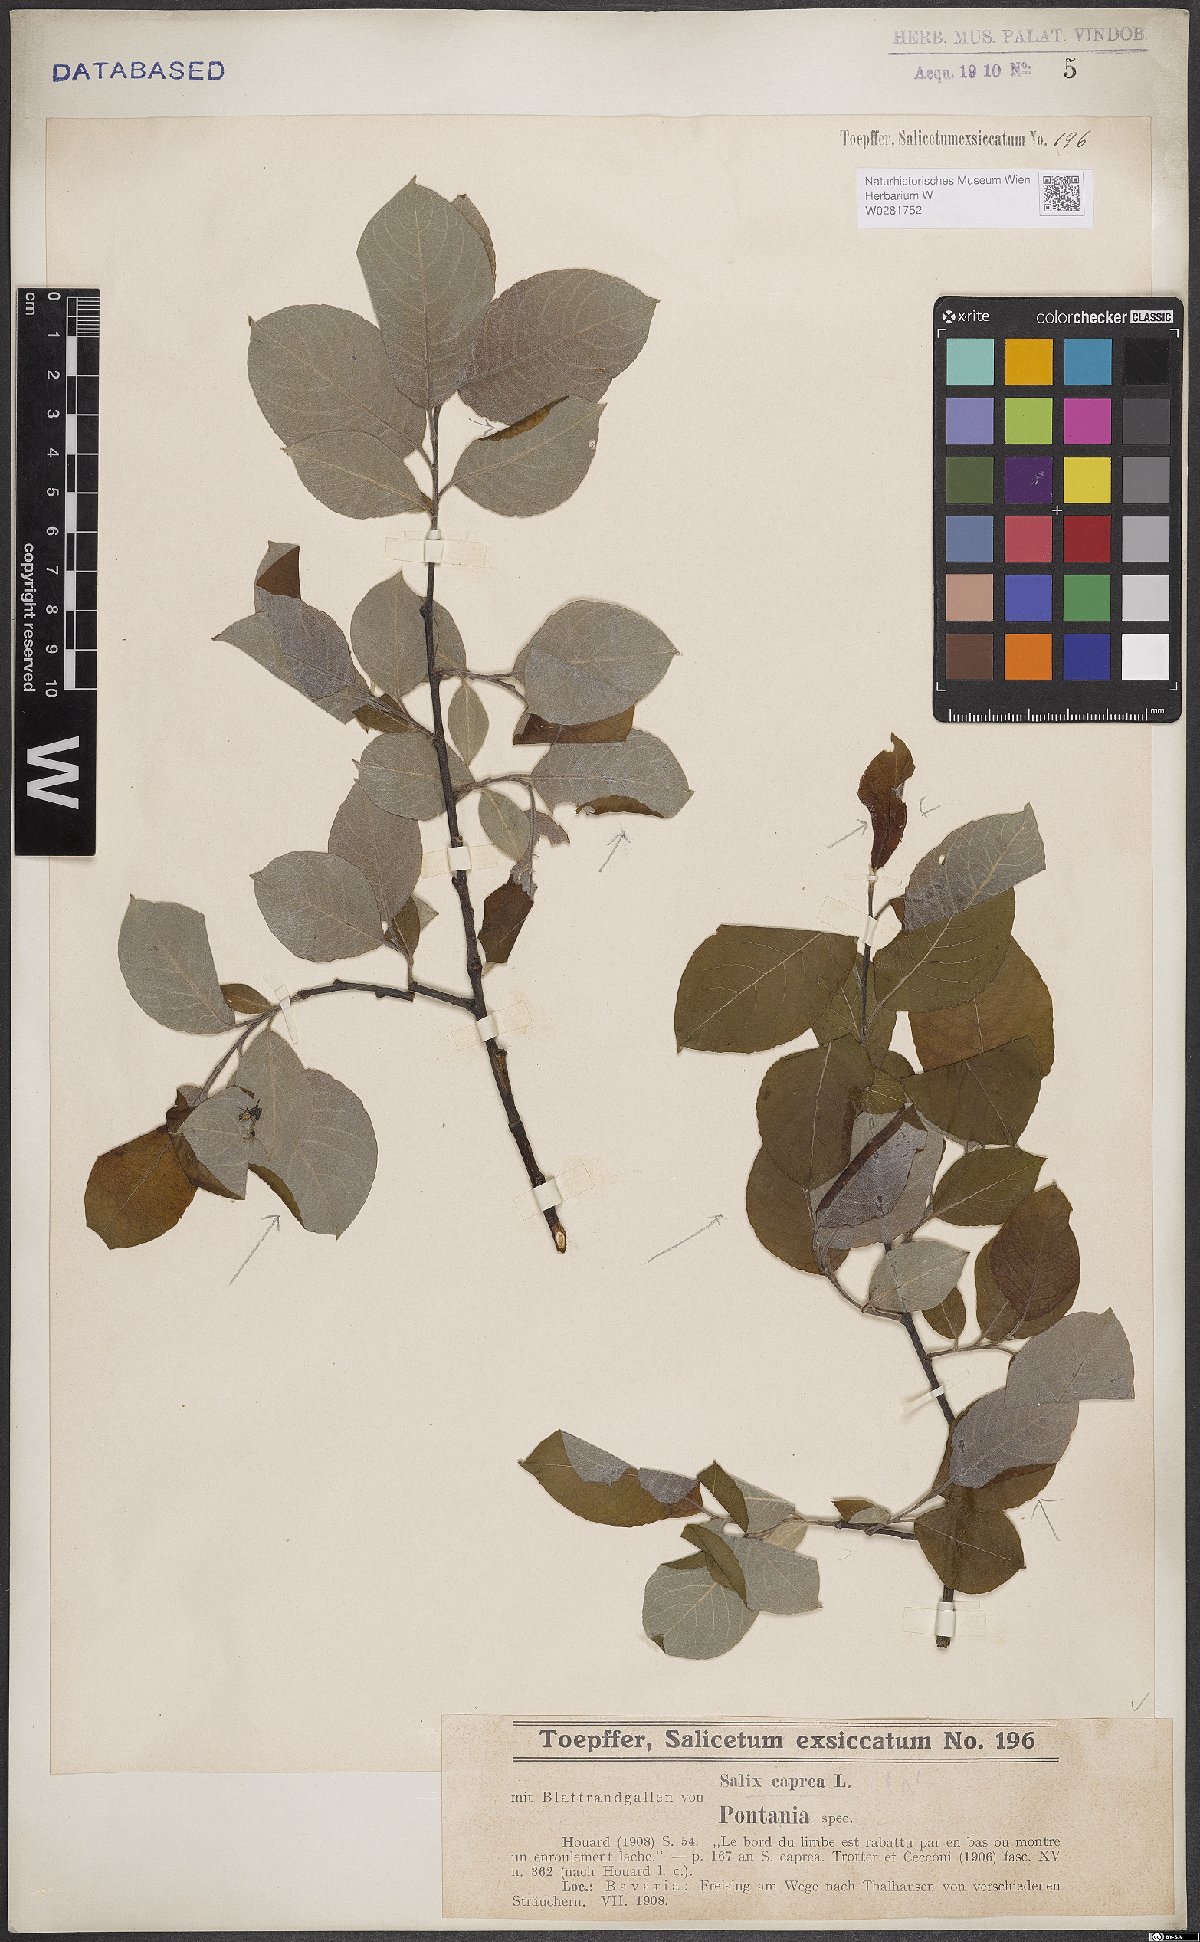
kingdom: Plantae
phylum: Tracheophyta
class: Magnoliopsida
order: Malpighiales
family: Salicaceae
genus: Salix
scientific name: Salix caprea
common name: Goat willow
